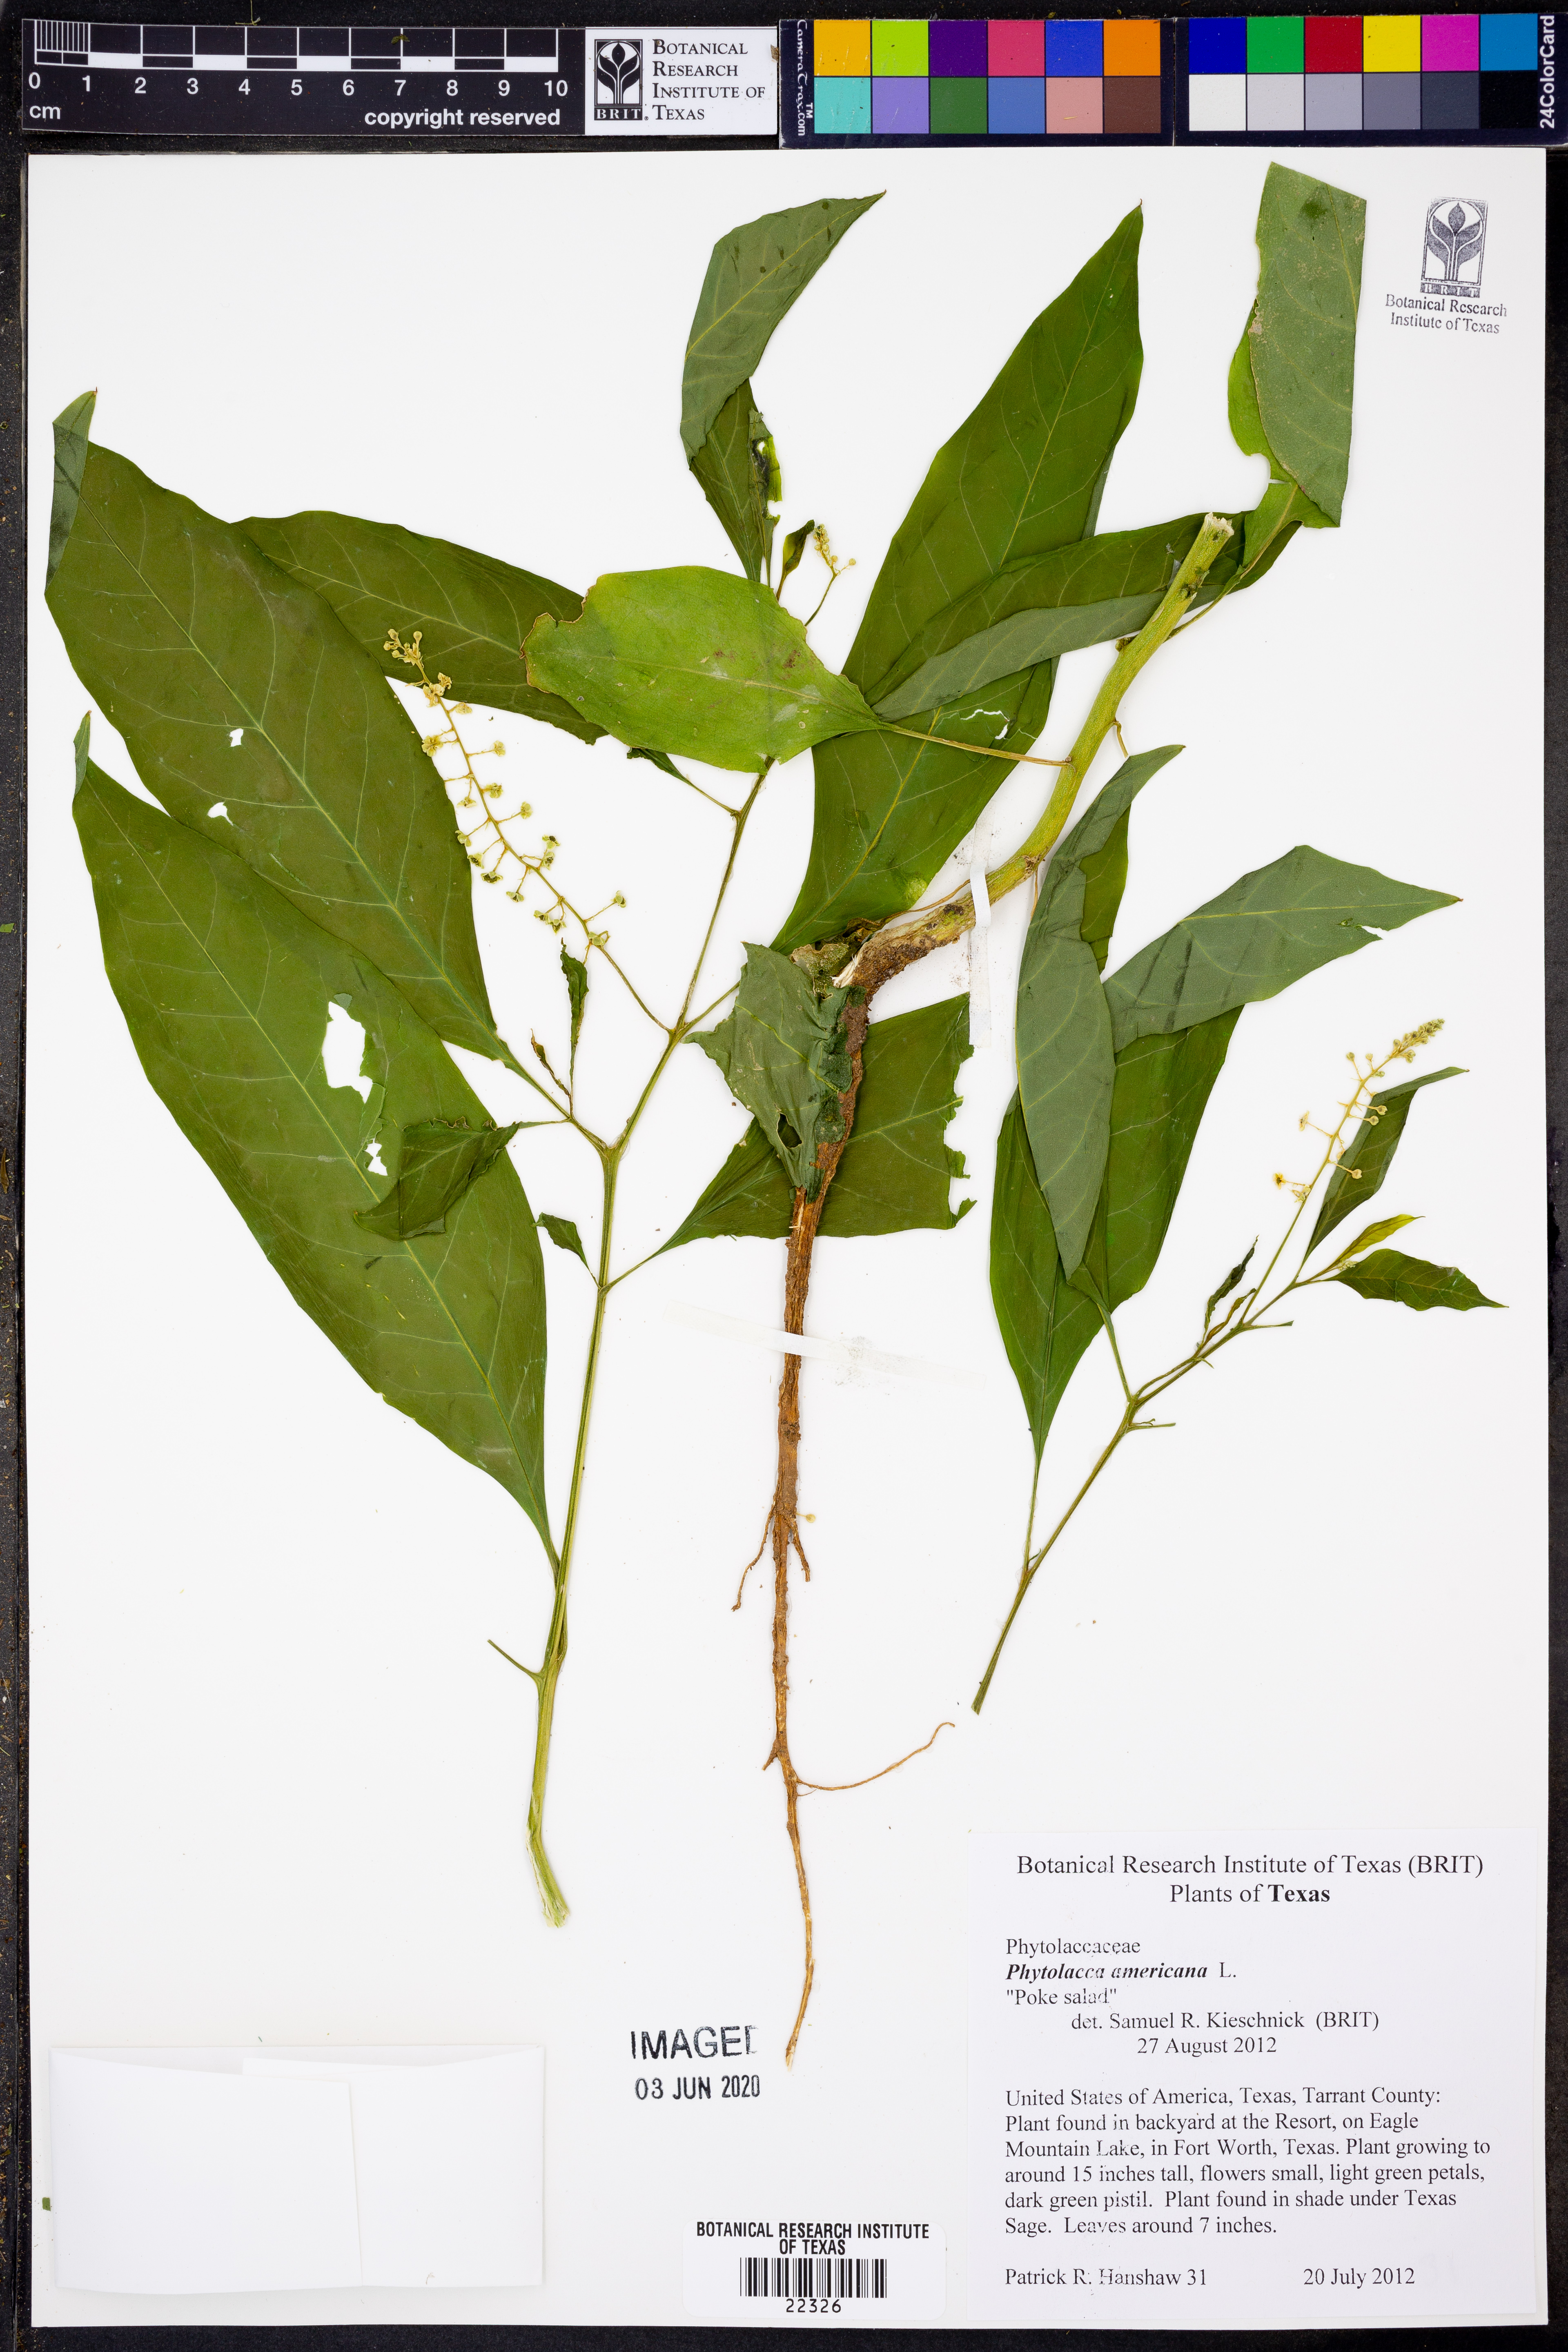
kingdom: Plantae
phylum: Tracheophyta
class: Magnoliopsida
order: Caryophyllales
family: Phytolaccaceae
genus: Phytolacca
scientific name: Phytolacca americana
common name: American pokeweed
